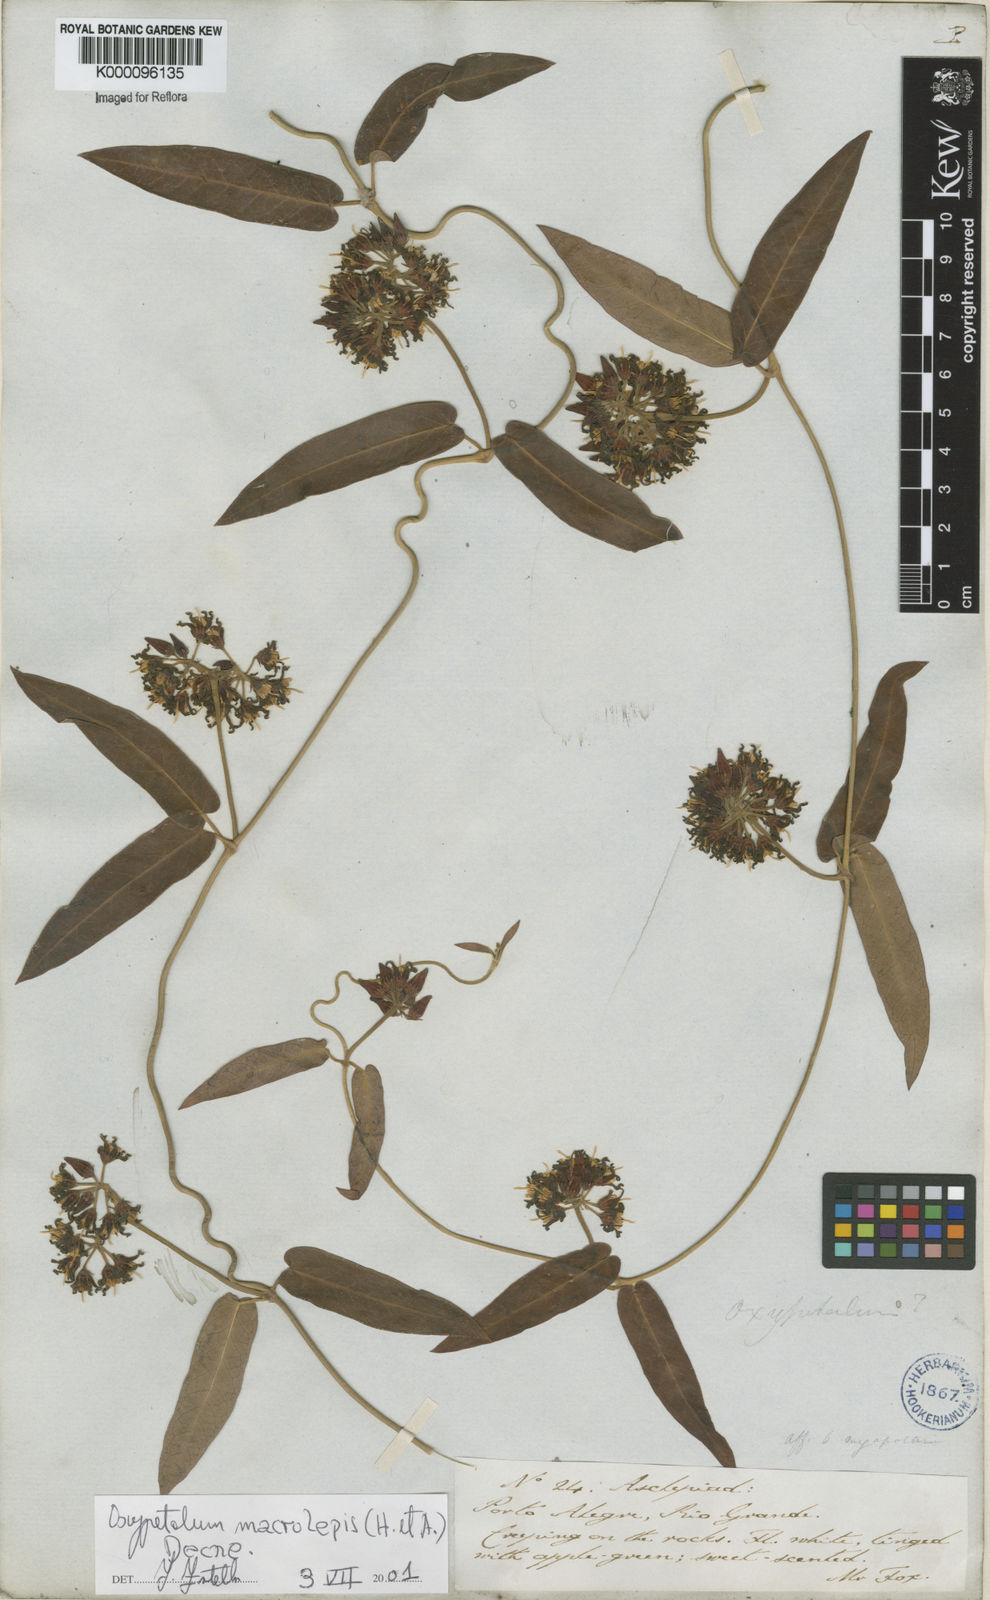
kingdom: Plantae
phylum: Tracheophyta
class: Magnoliopsida
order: Gentianales
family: Apocynaceae
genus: Oxypetalum
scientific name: Oxypetalum macrolepis
